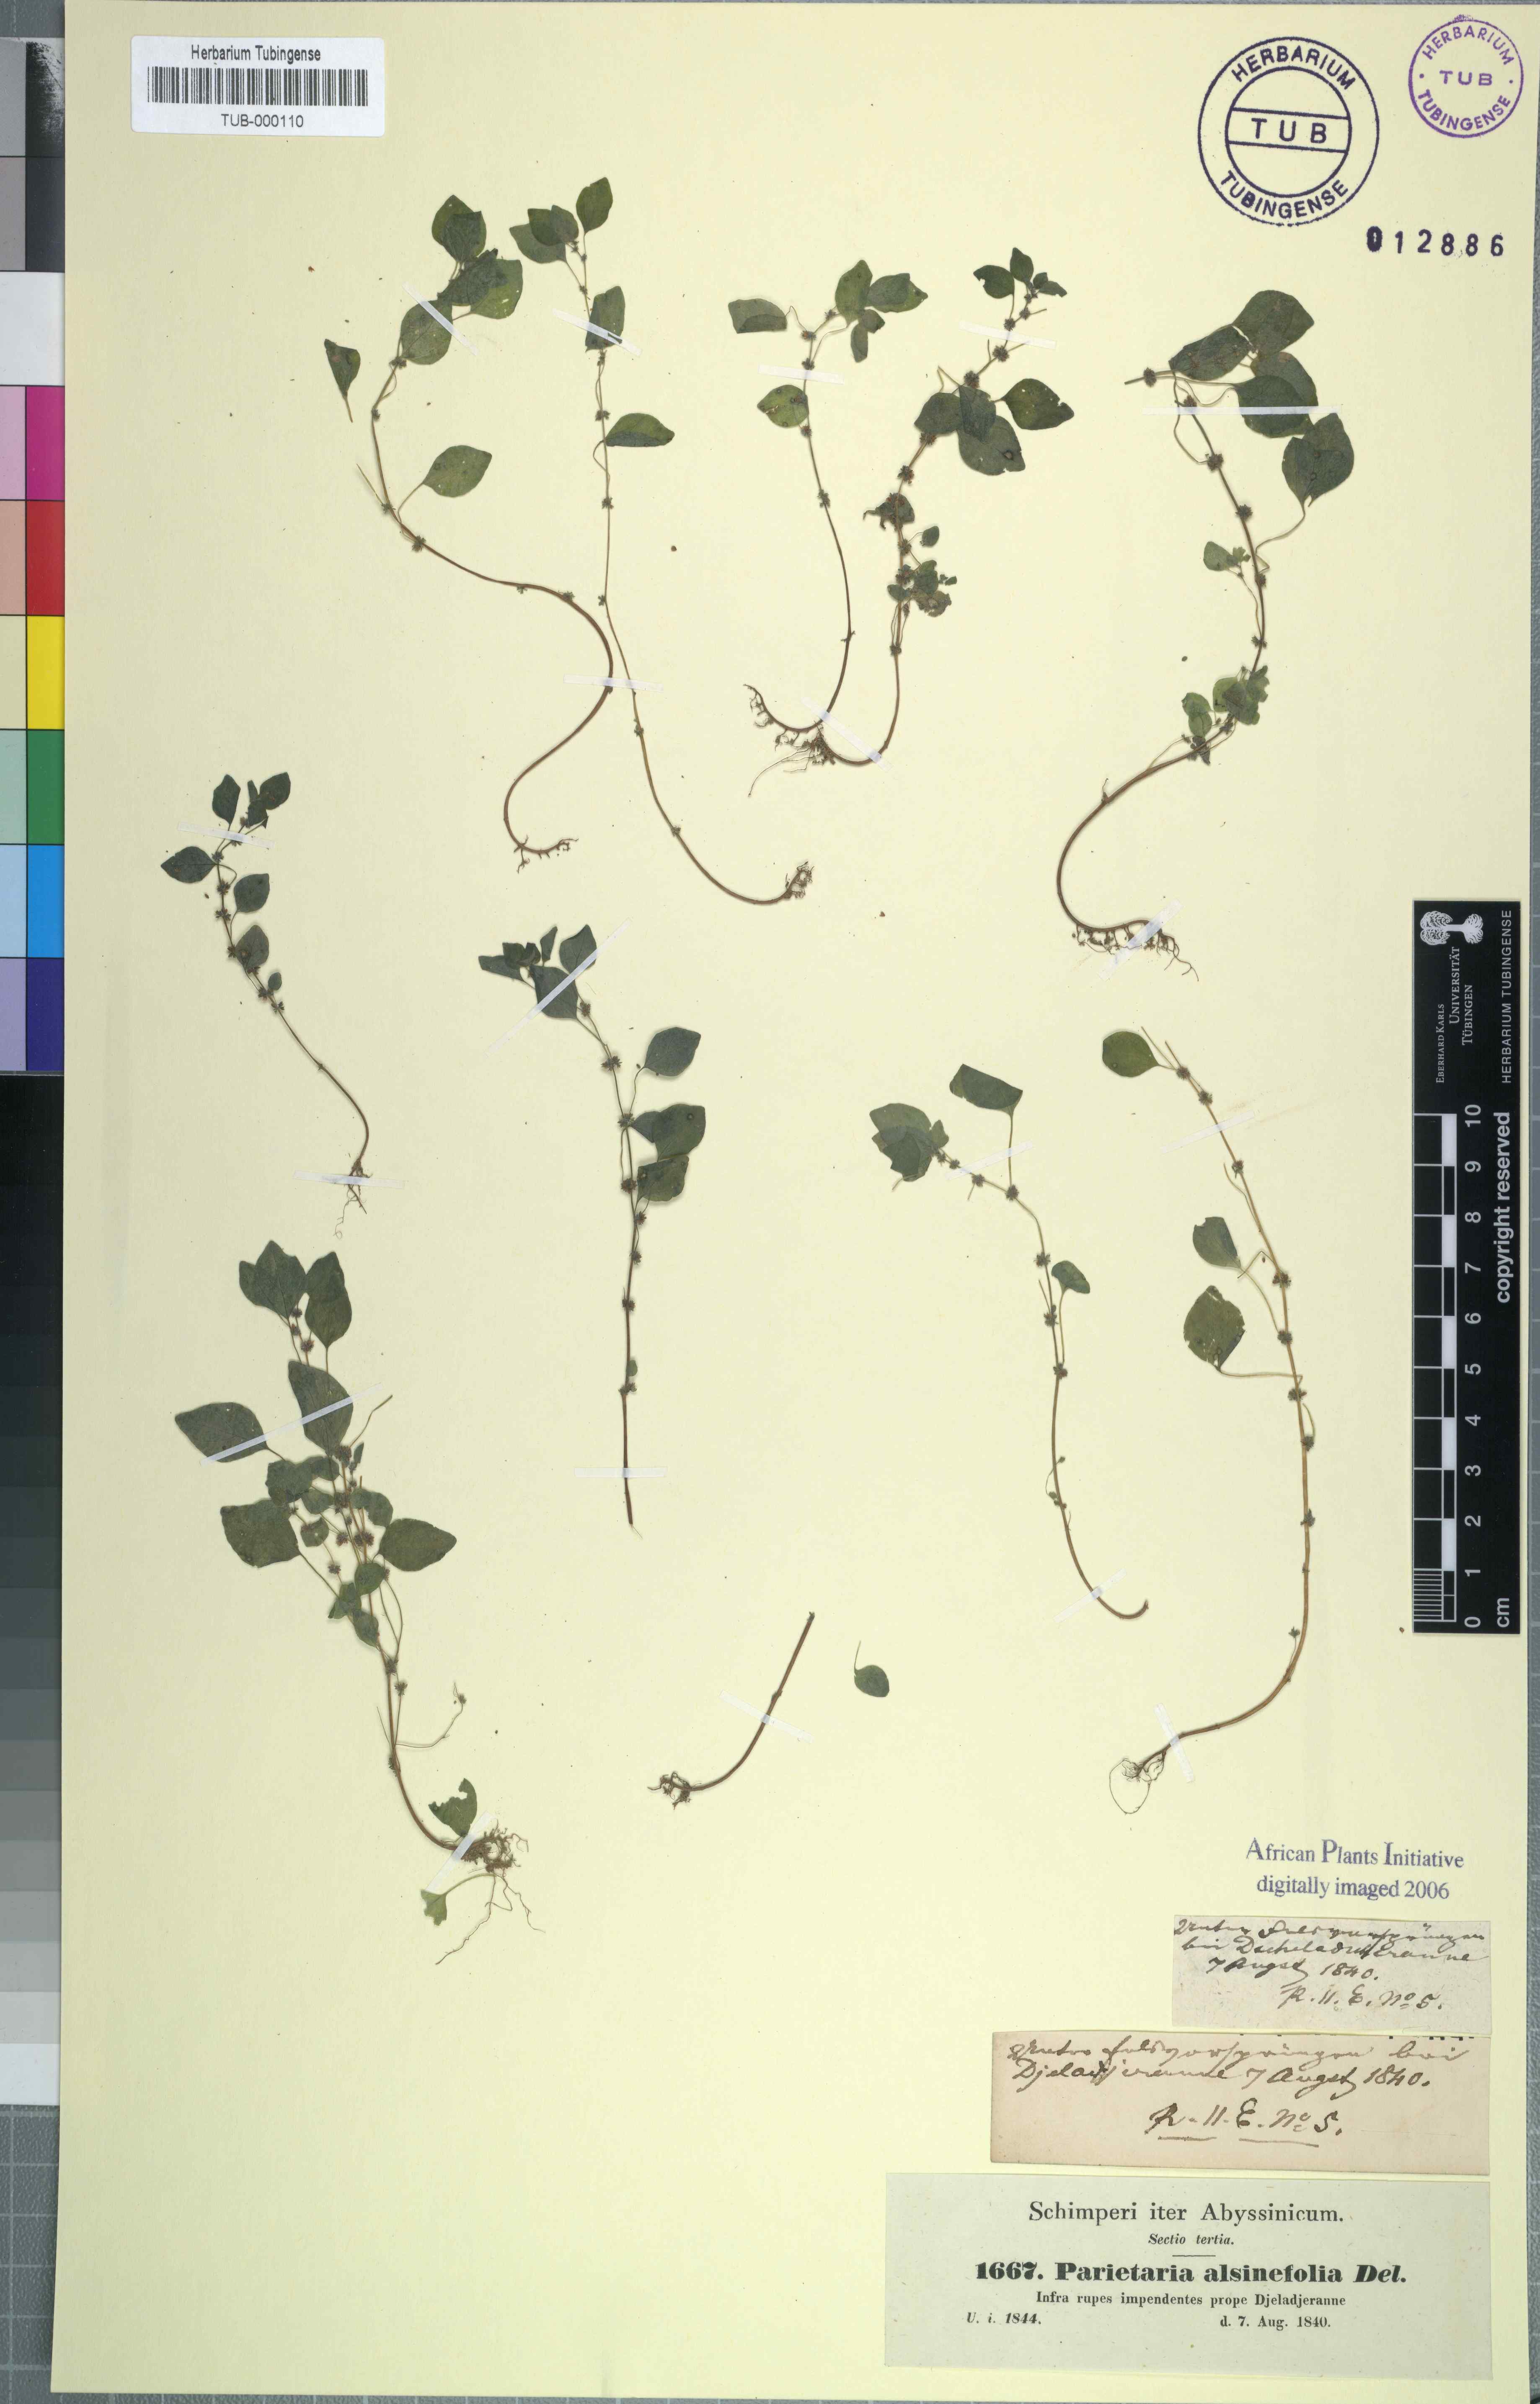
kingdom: Plantae
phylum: Tracheophyta
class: Magnoliopsida
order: Rosales
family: Urticaceae
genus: Parietaria
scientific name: Parietaria alsinefolia
